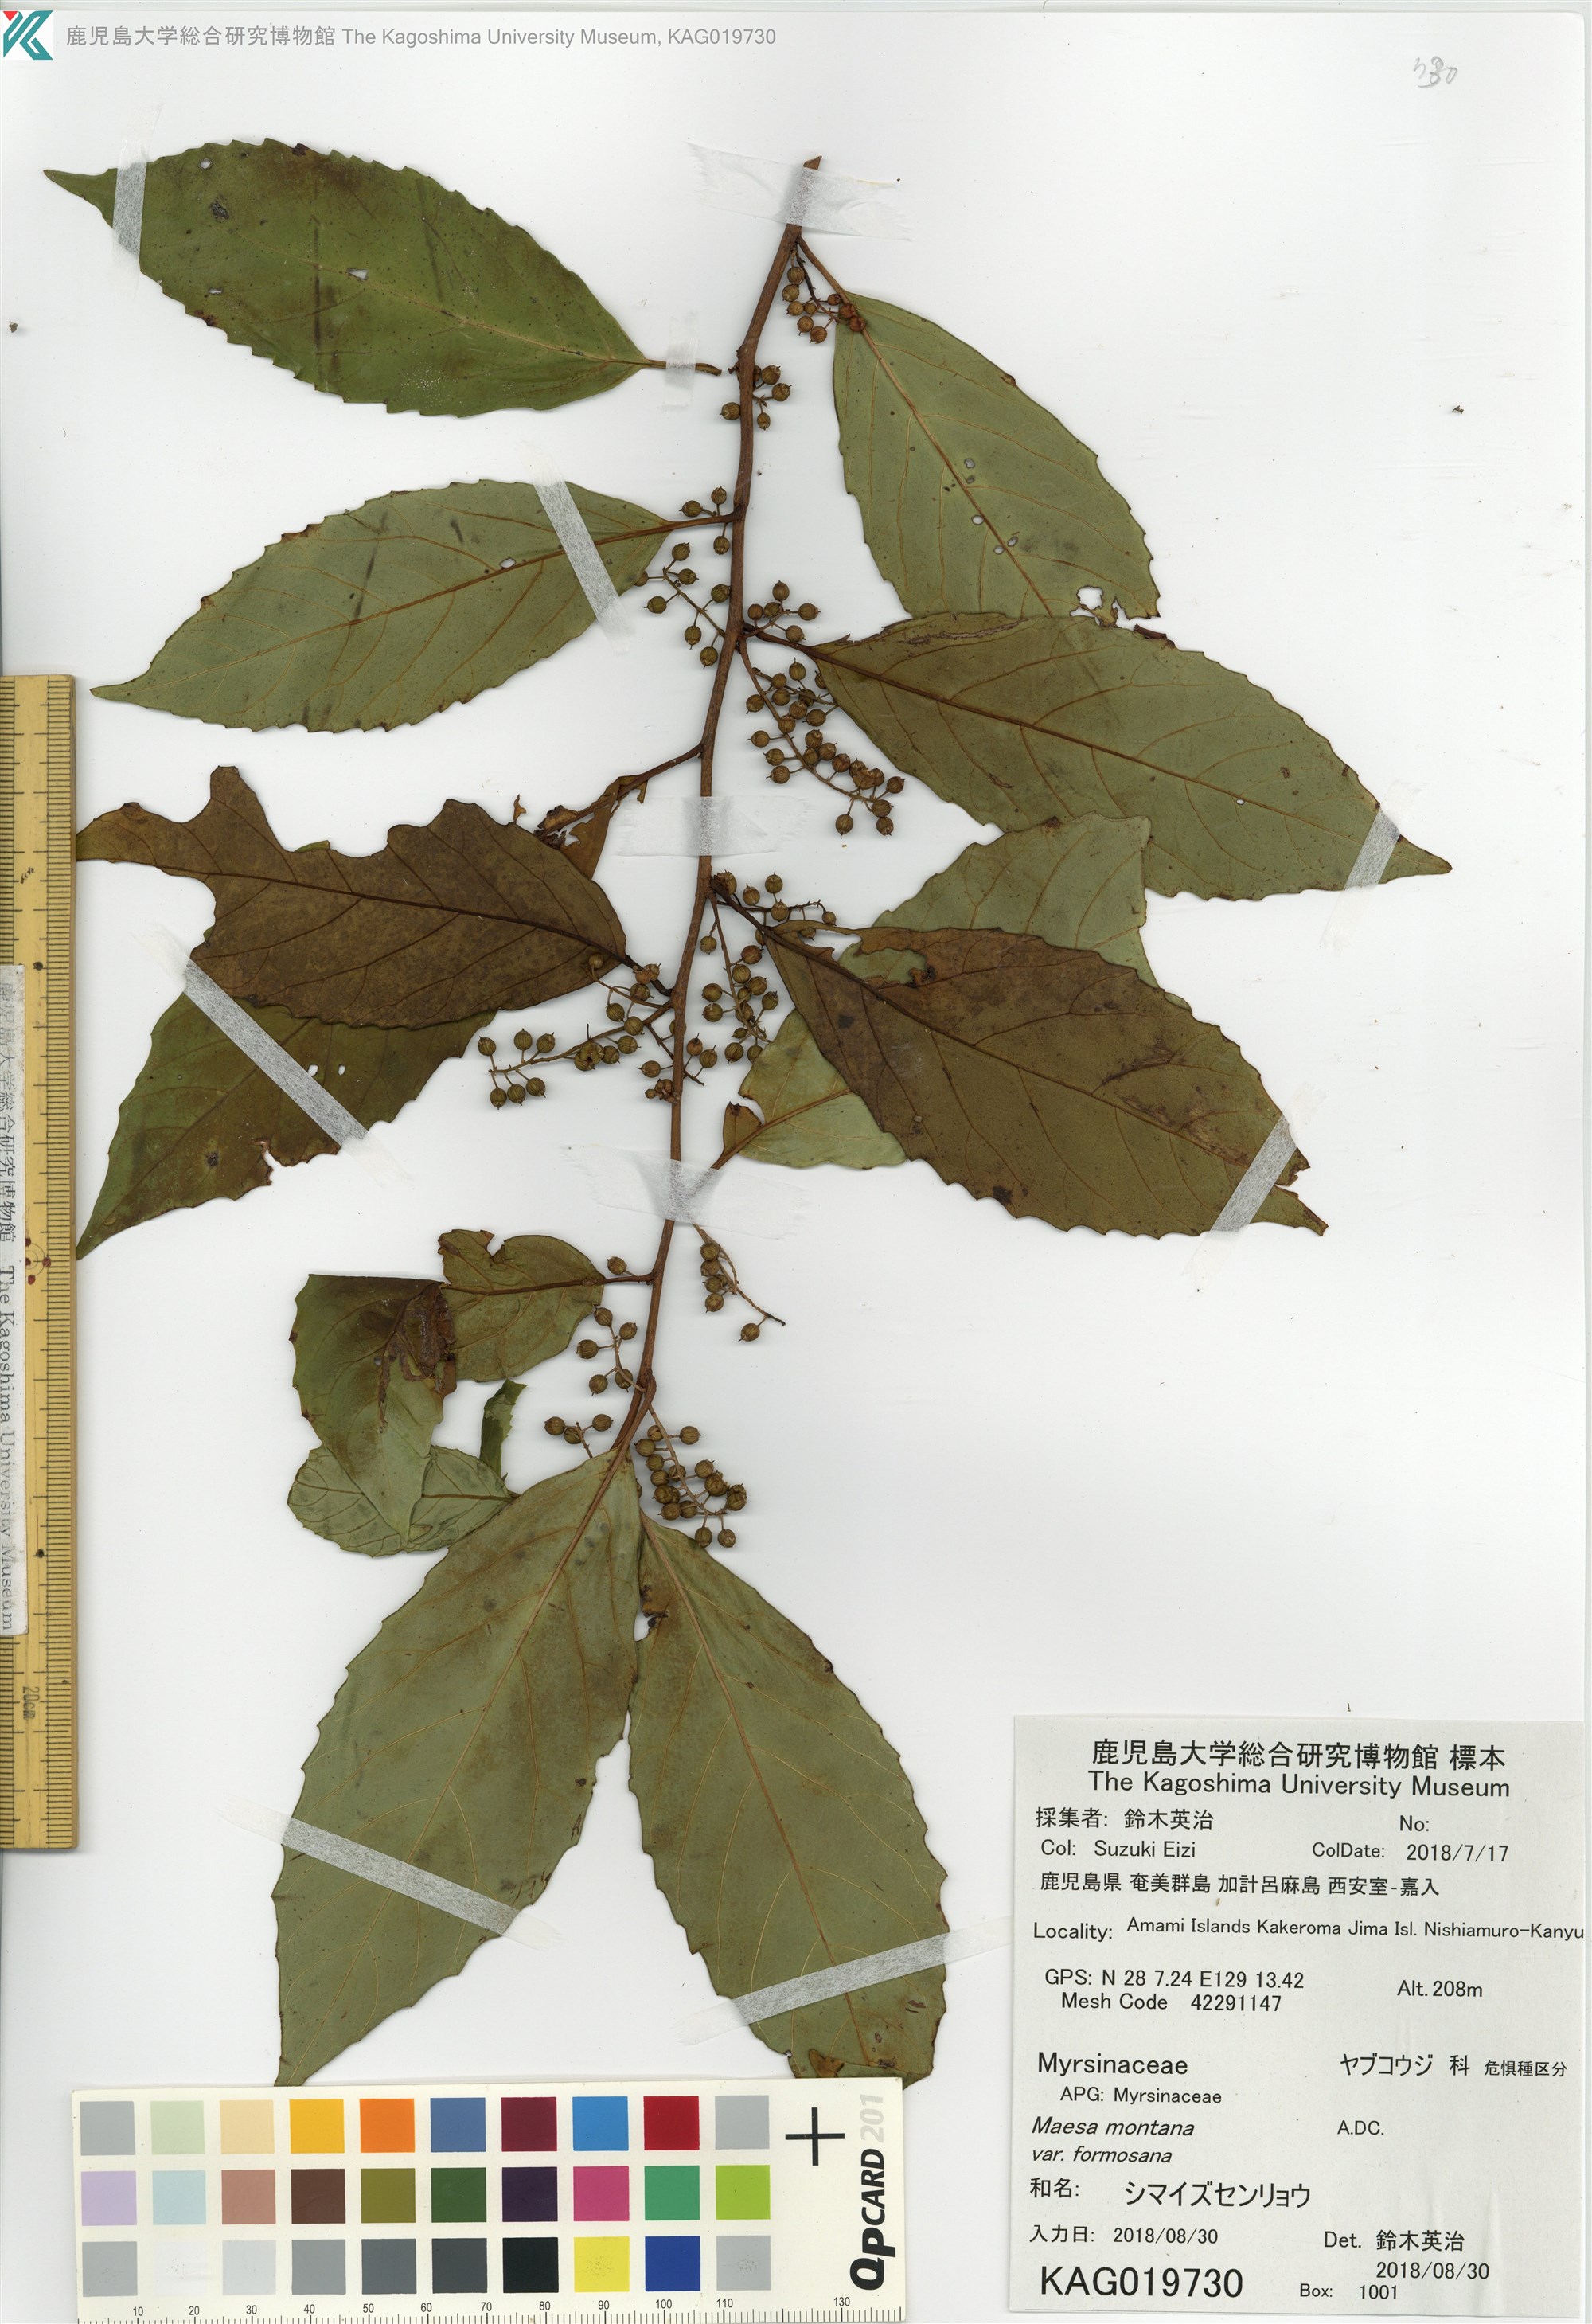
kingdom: Plantae
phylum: Tracheophyta
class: Magnoliopsida
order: Ericales
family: Primulaceae
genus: Maesa
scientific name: Maesa perlaria
